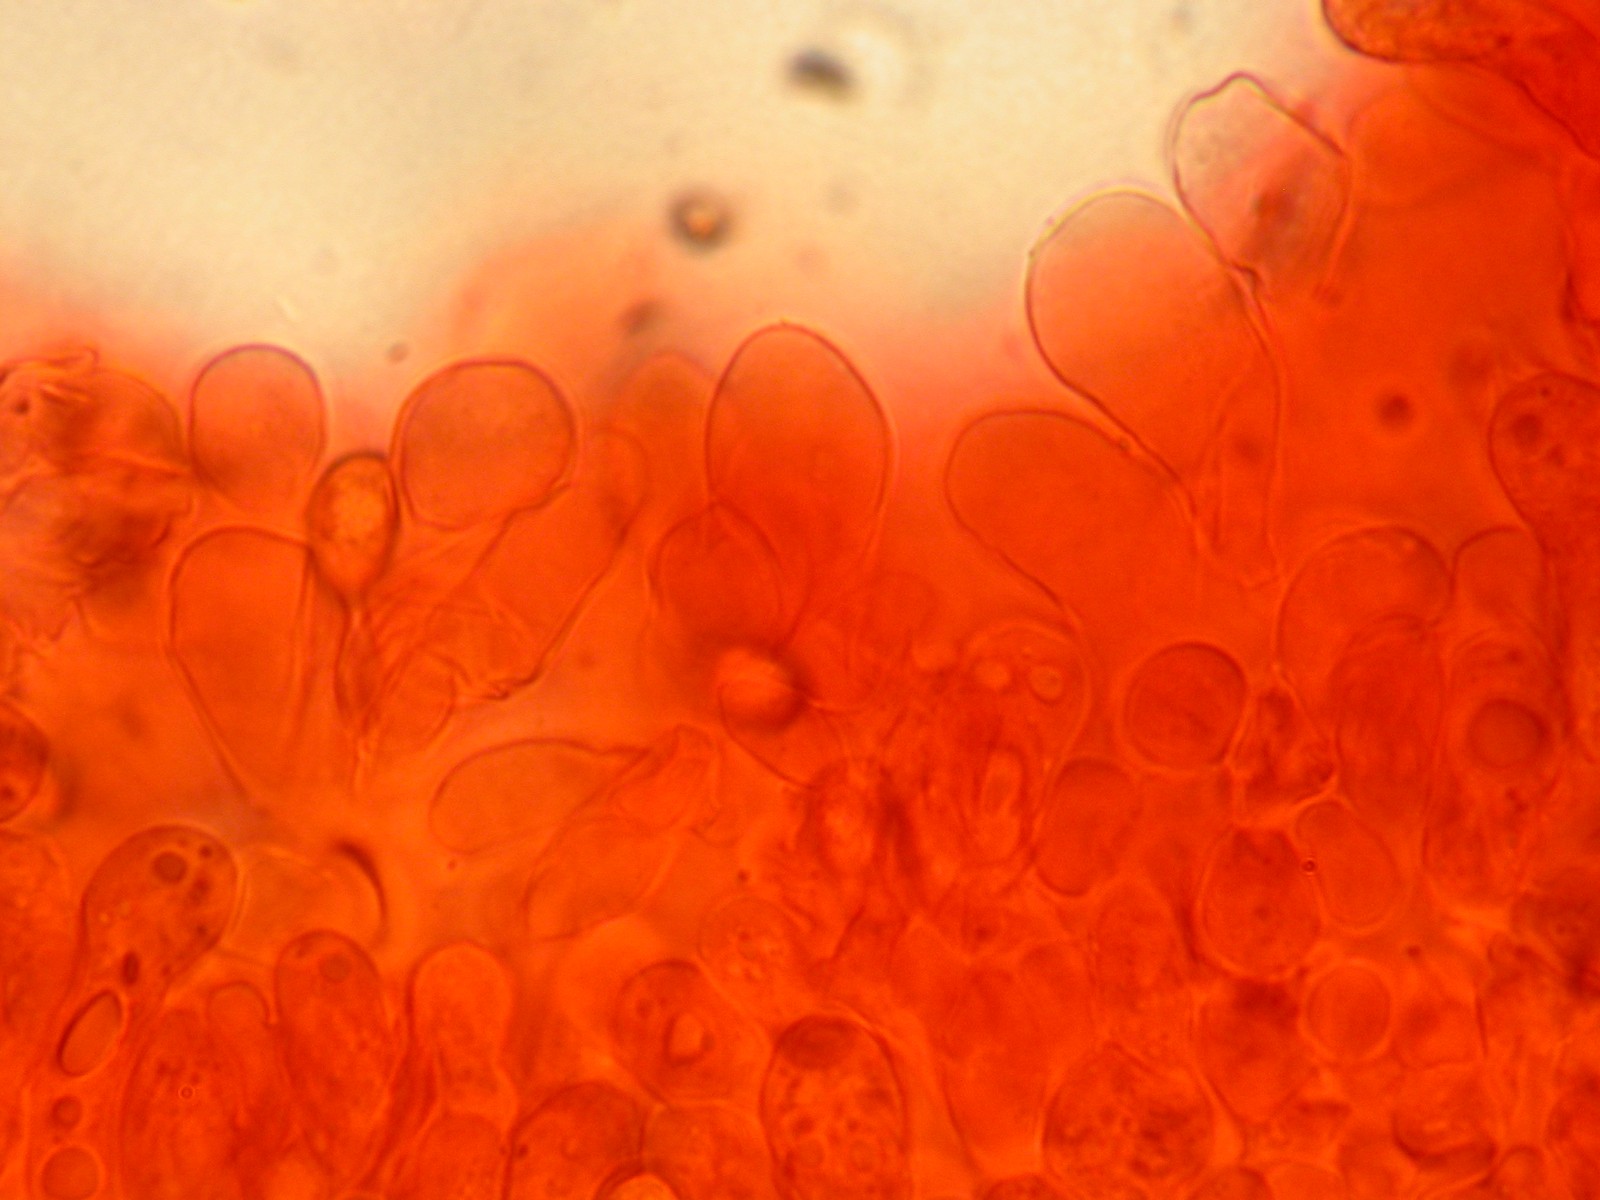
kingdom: Fungi
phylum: Basidiomycota
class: Agaricomycetes
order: Agaricales
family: Inocybaceae
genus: Inocybe
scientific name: Inocybe dulcamara
